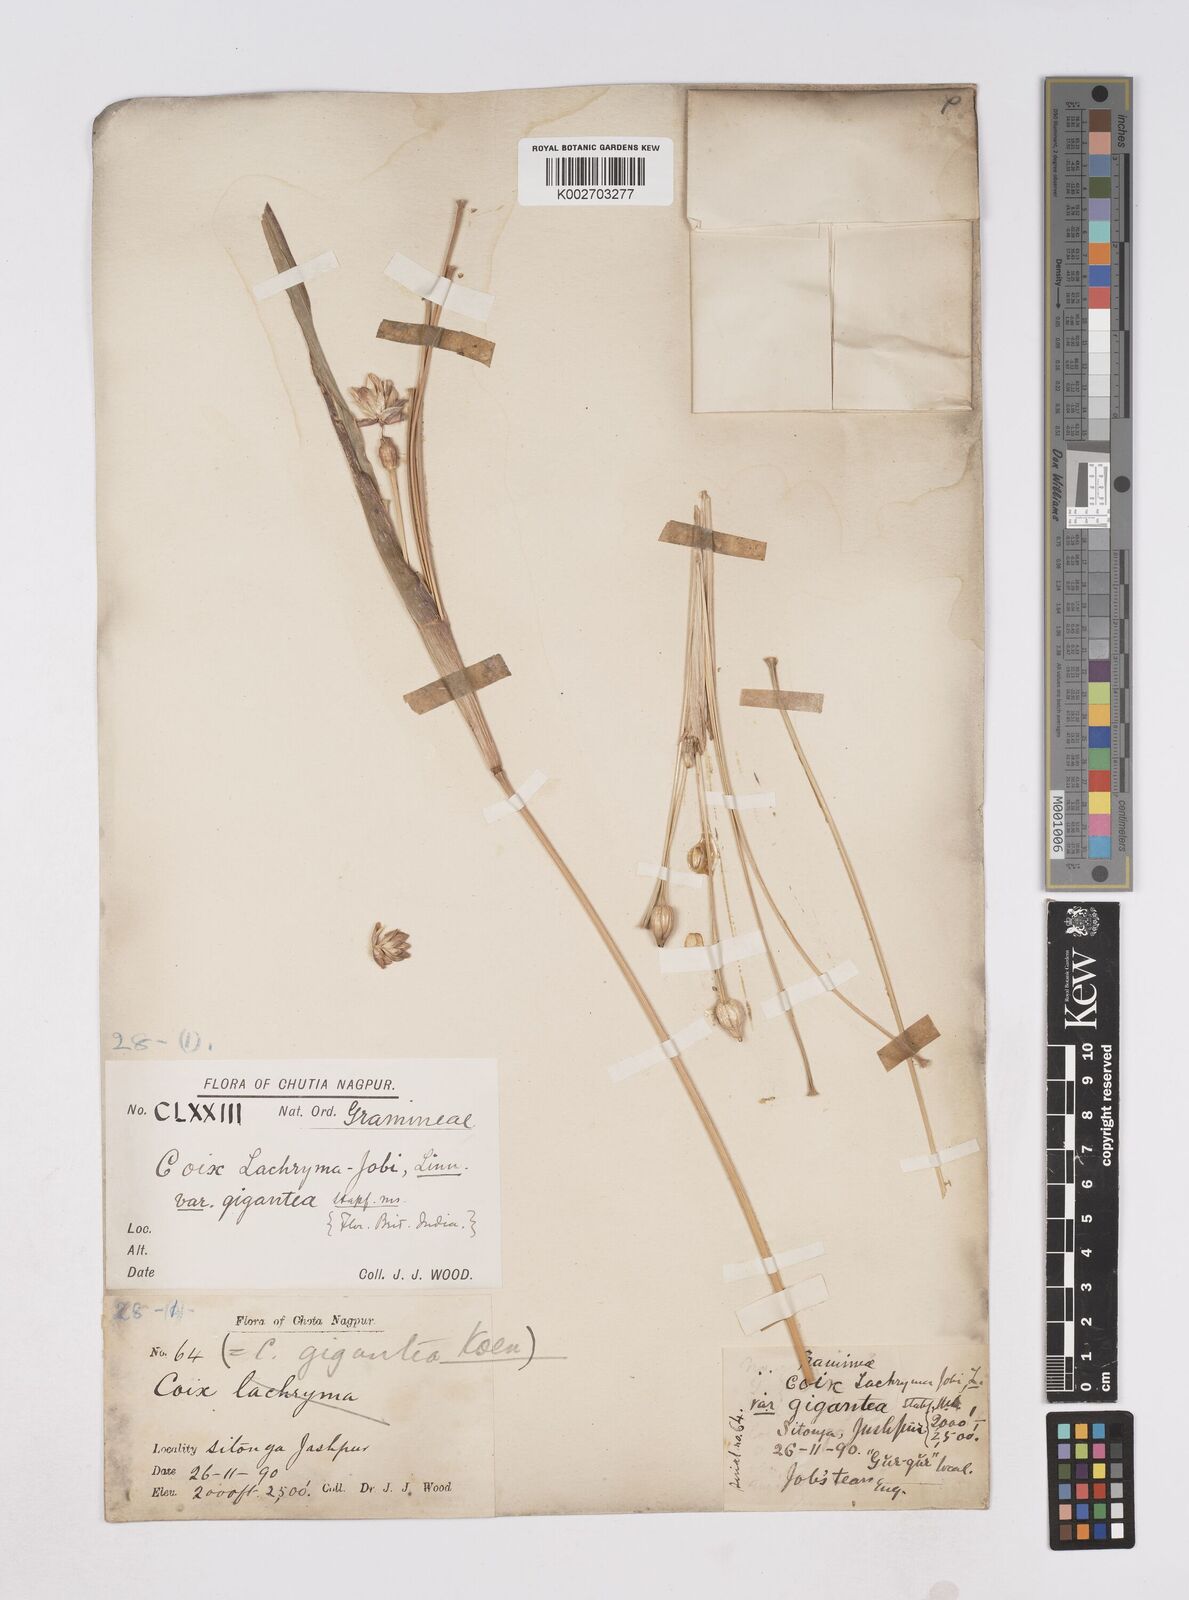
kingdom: Plantae
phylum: Tracheophyta
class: Liliopsida
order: Poales
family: Poaceae
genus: Coix
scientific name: Coix aquatica
